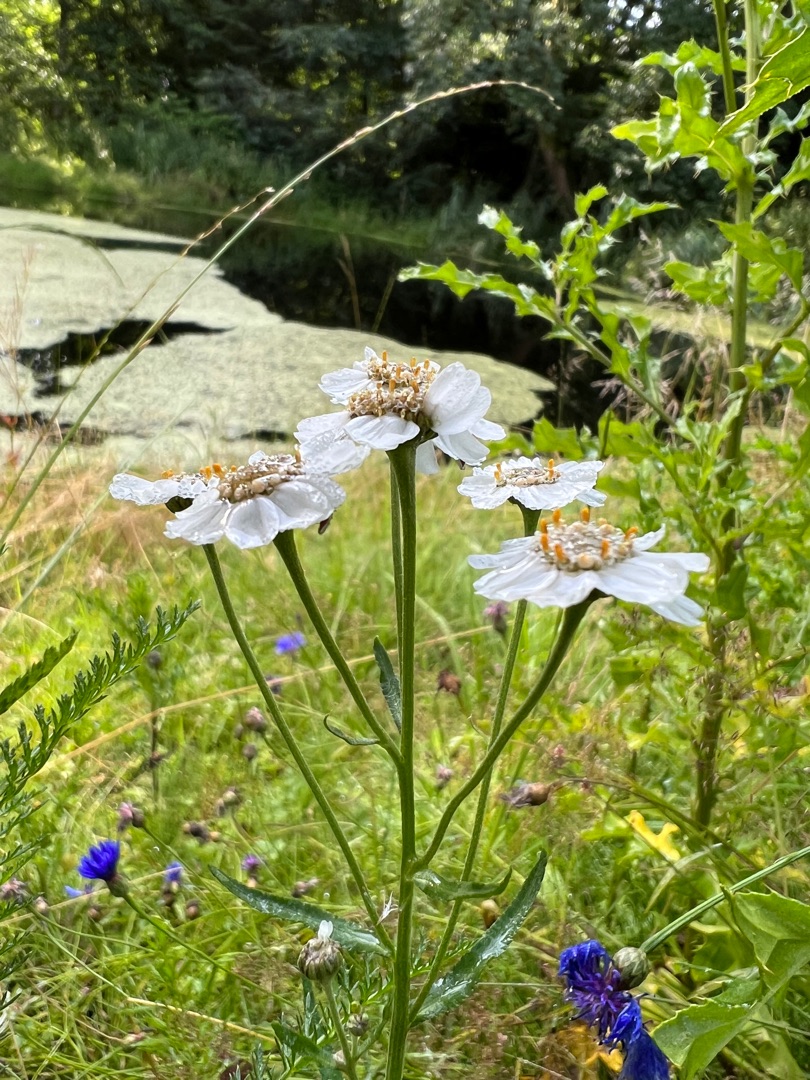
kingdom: Plantae
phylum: Tracheophyta
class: Magnoliopsida
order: Asterales
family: Asteraceae
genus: Achillea
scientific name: Achillea ptarmica
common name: Nyse-røllike
